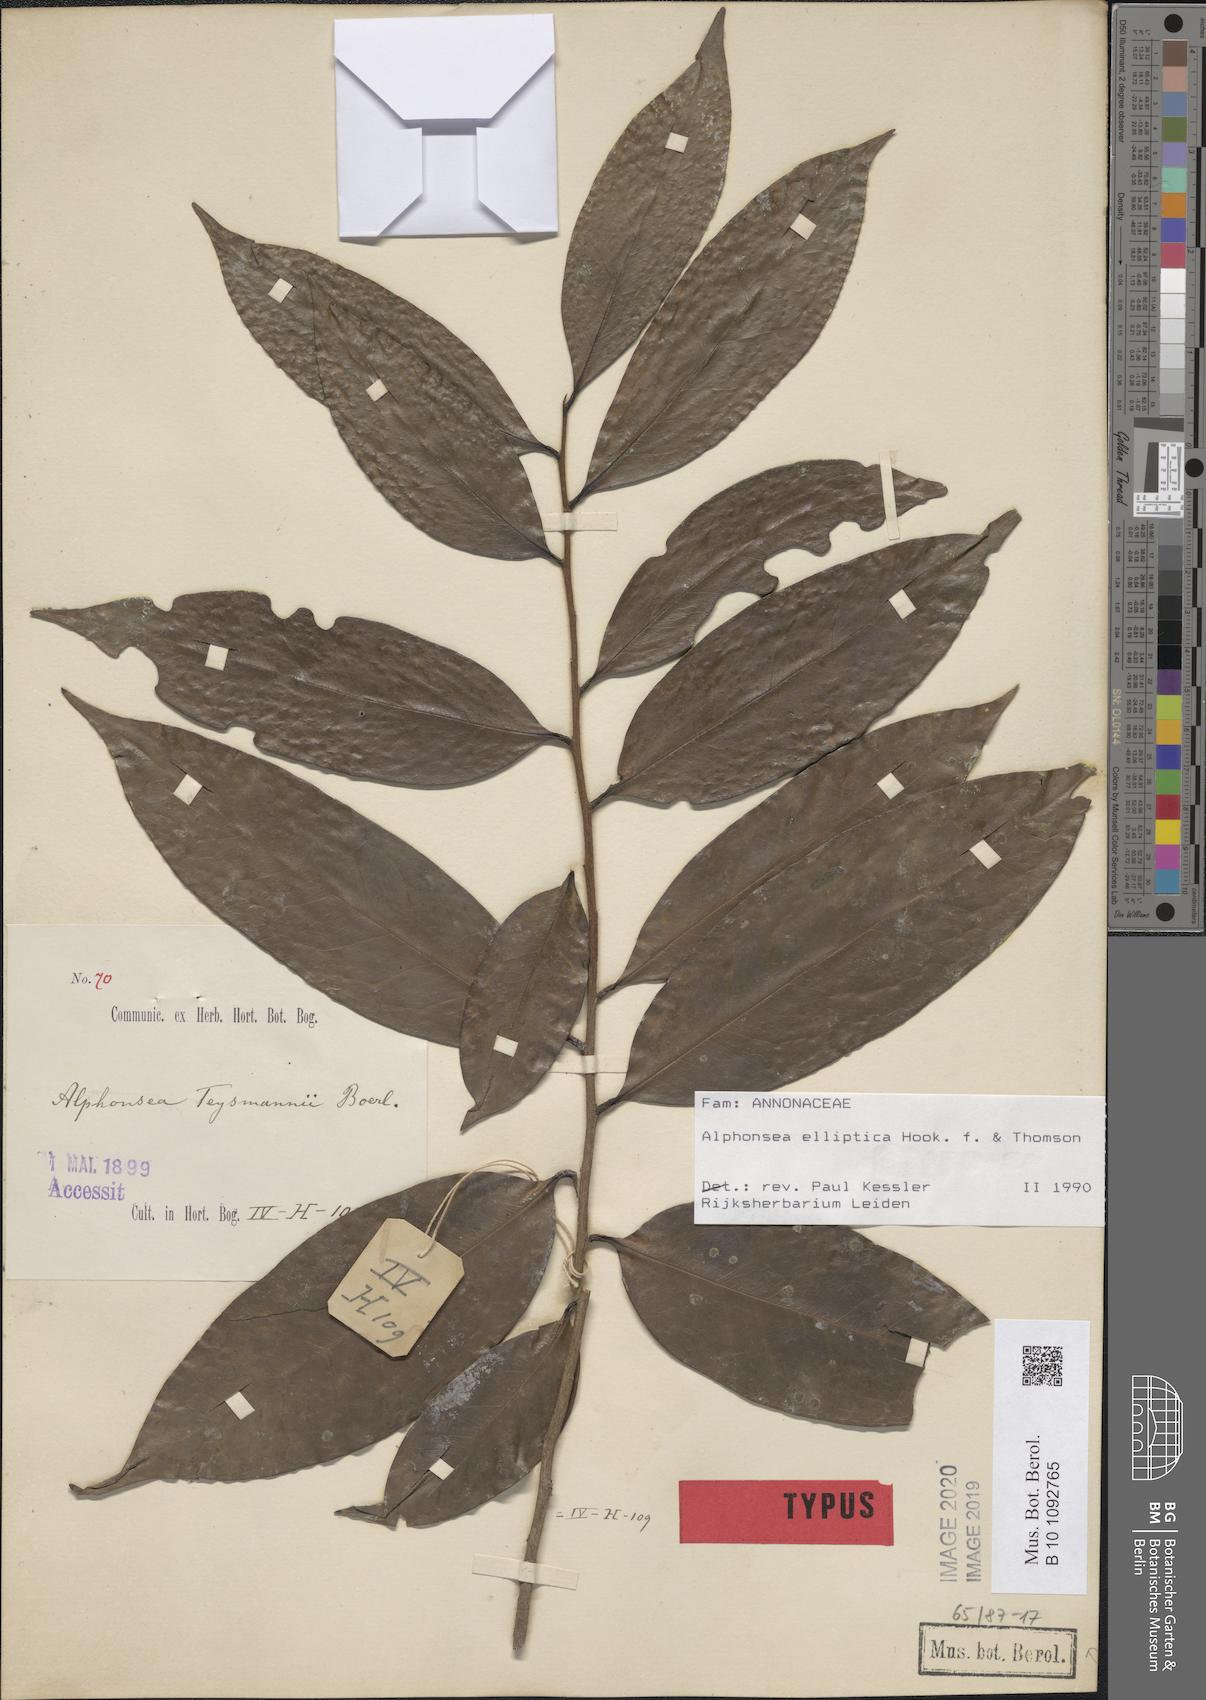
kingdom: Plantae
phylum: Tracheophyta
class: Magnoliopsida
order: Magnoliales
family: Annonaceae
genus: Alphonsea
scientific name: Alphonsea elliptica
